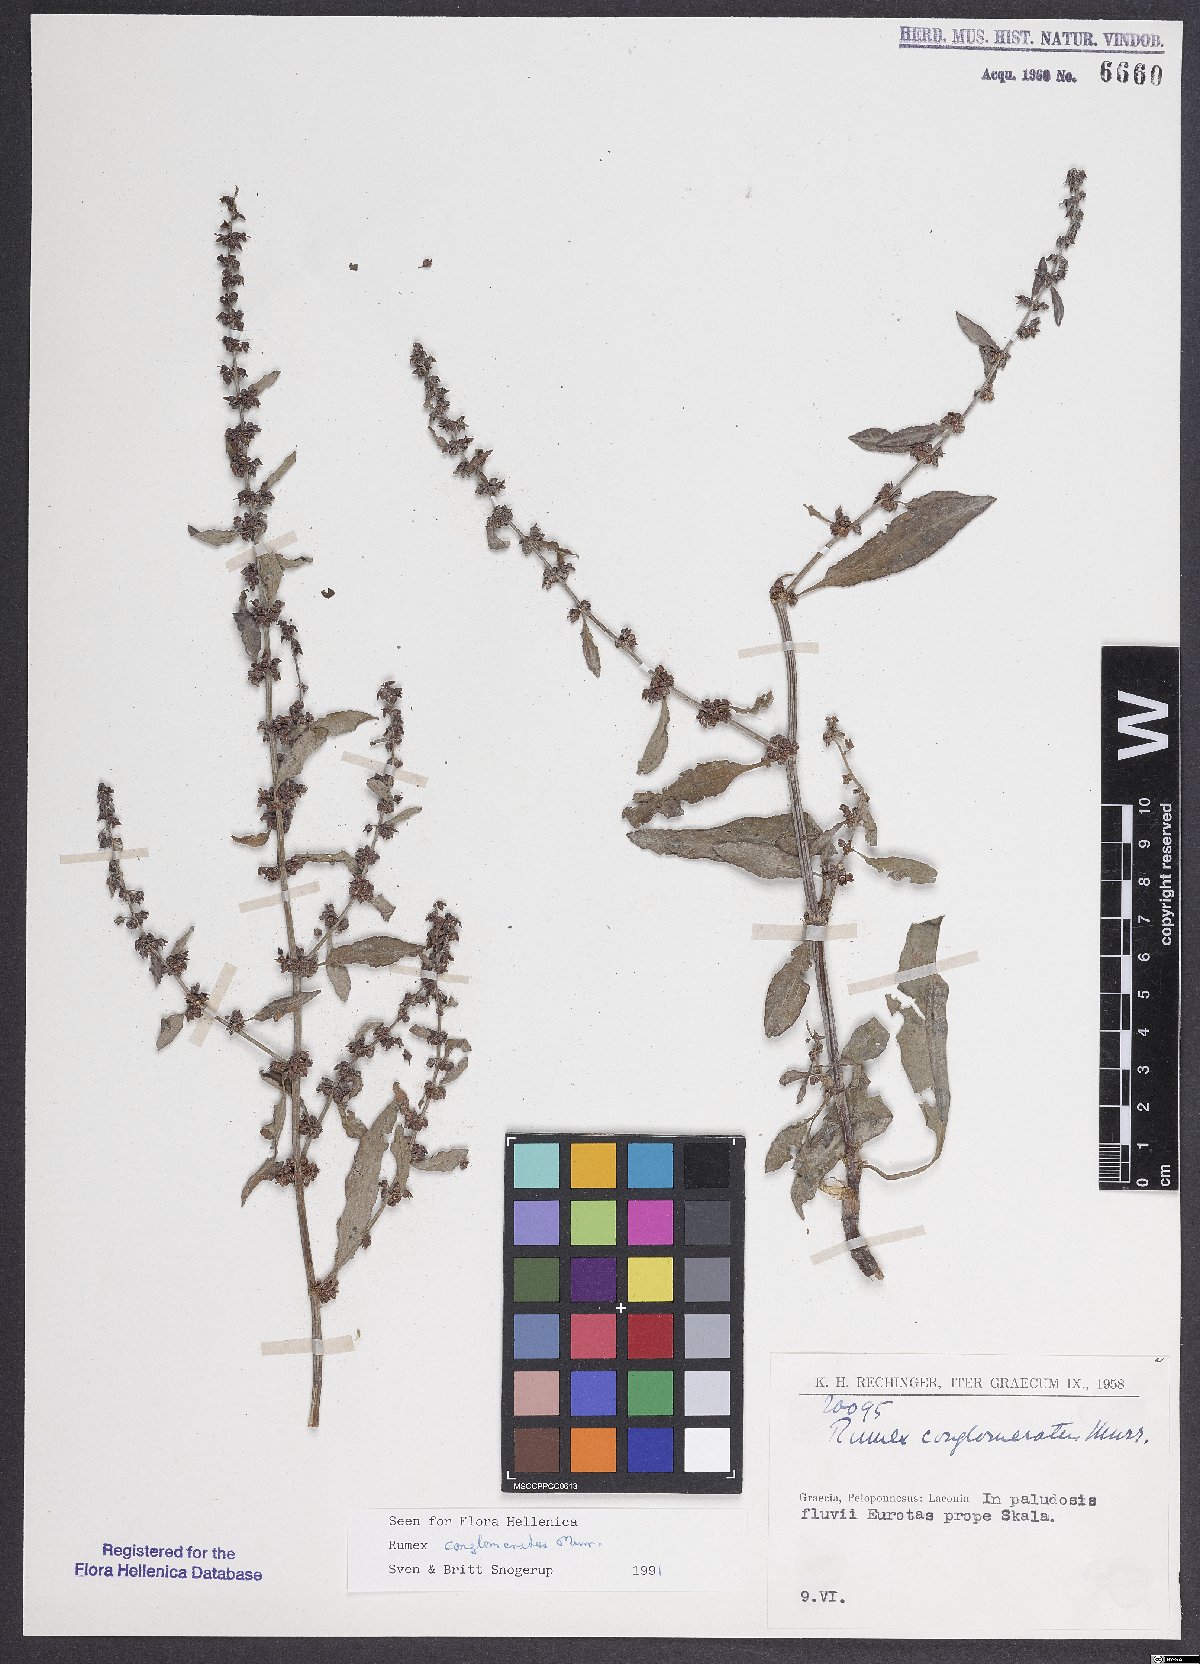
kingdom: Plantae
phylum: Tracheophyta
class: Magnoliopsida
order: Caryophyllales
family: Polygonaceae
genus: Rumex
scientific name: Rumex conglomeratus
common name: Clustered dock
